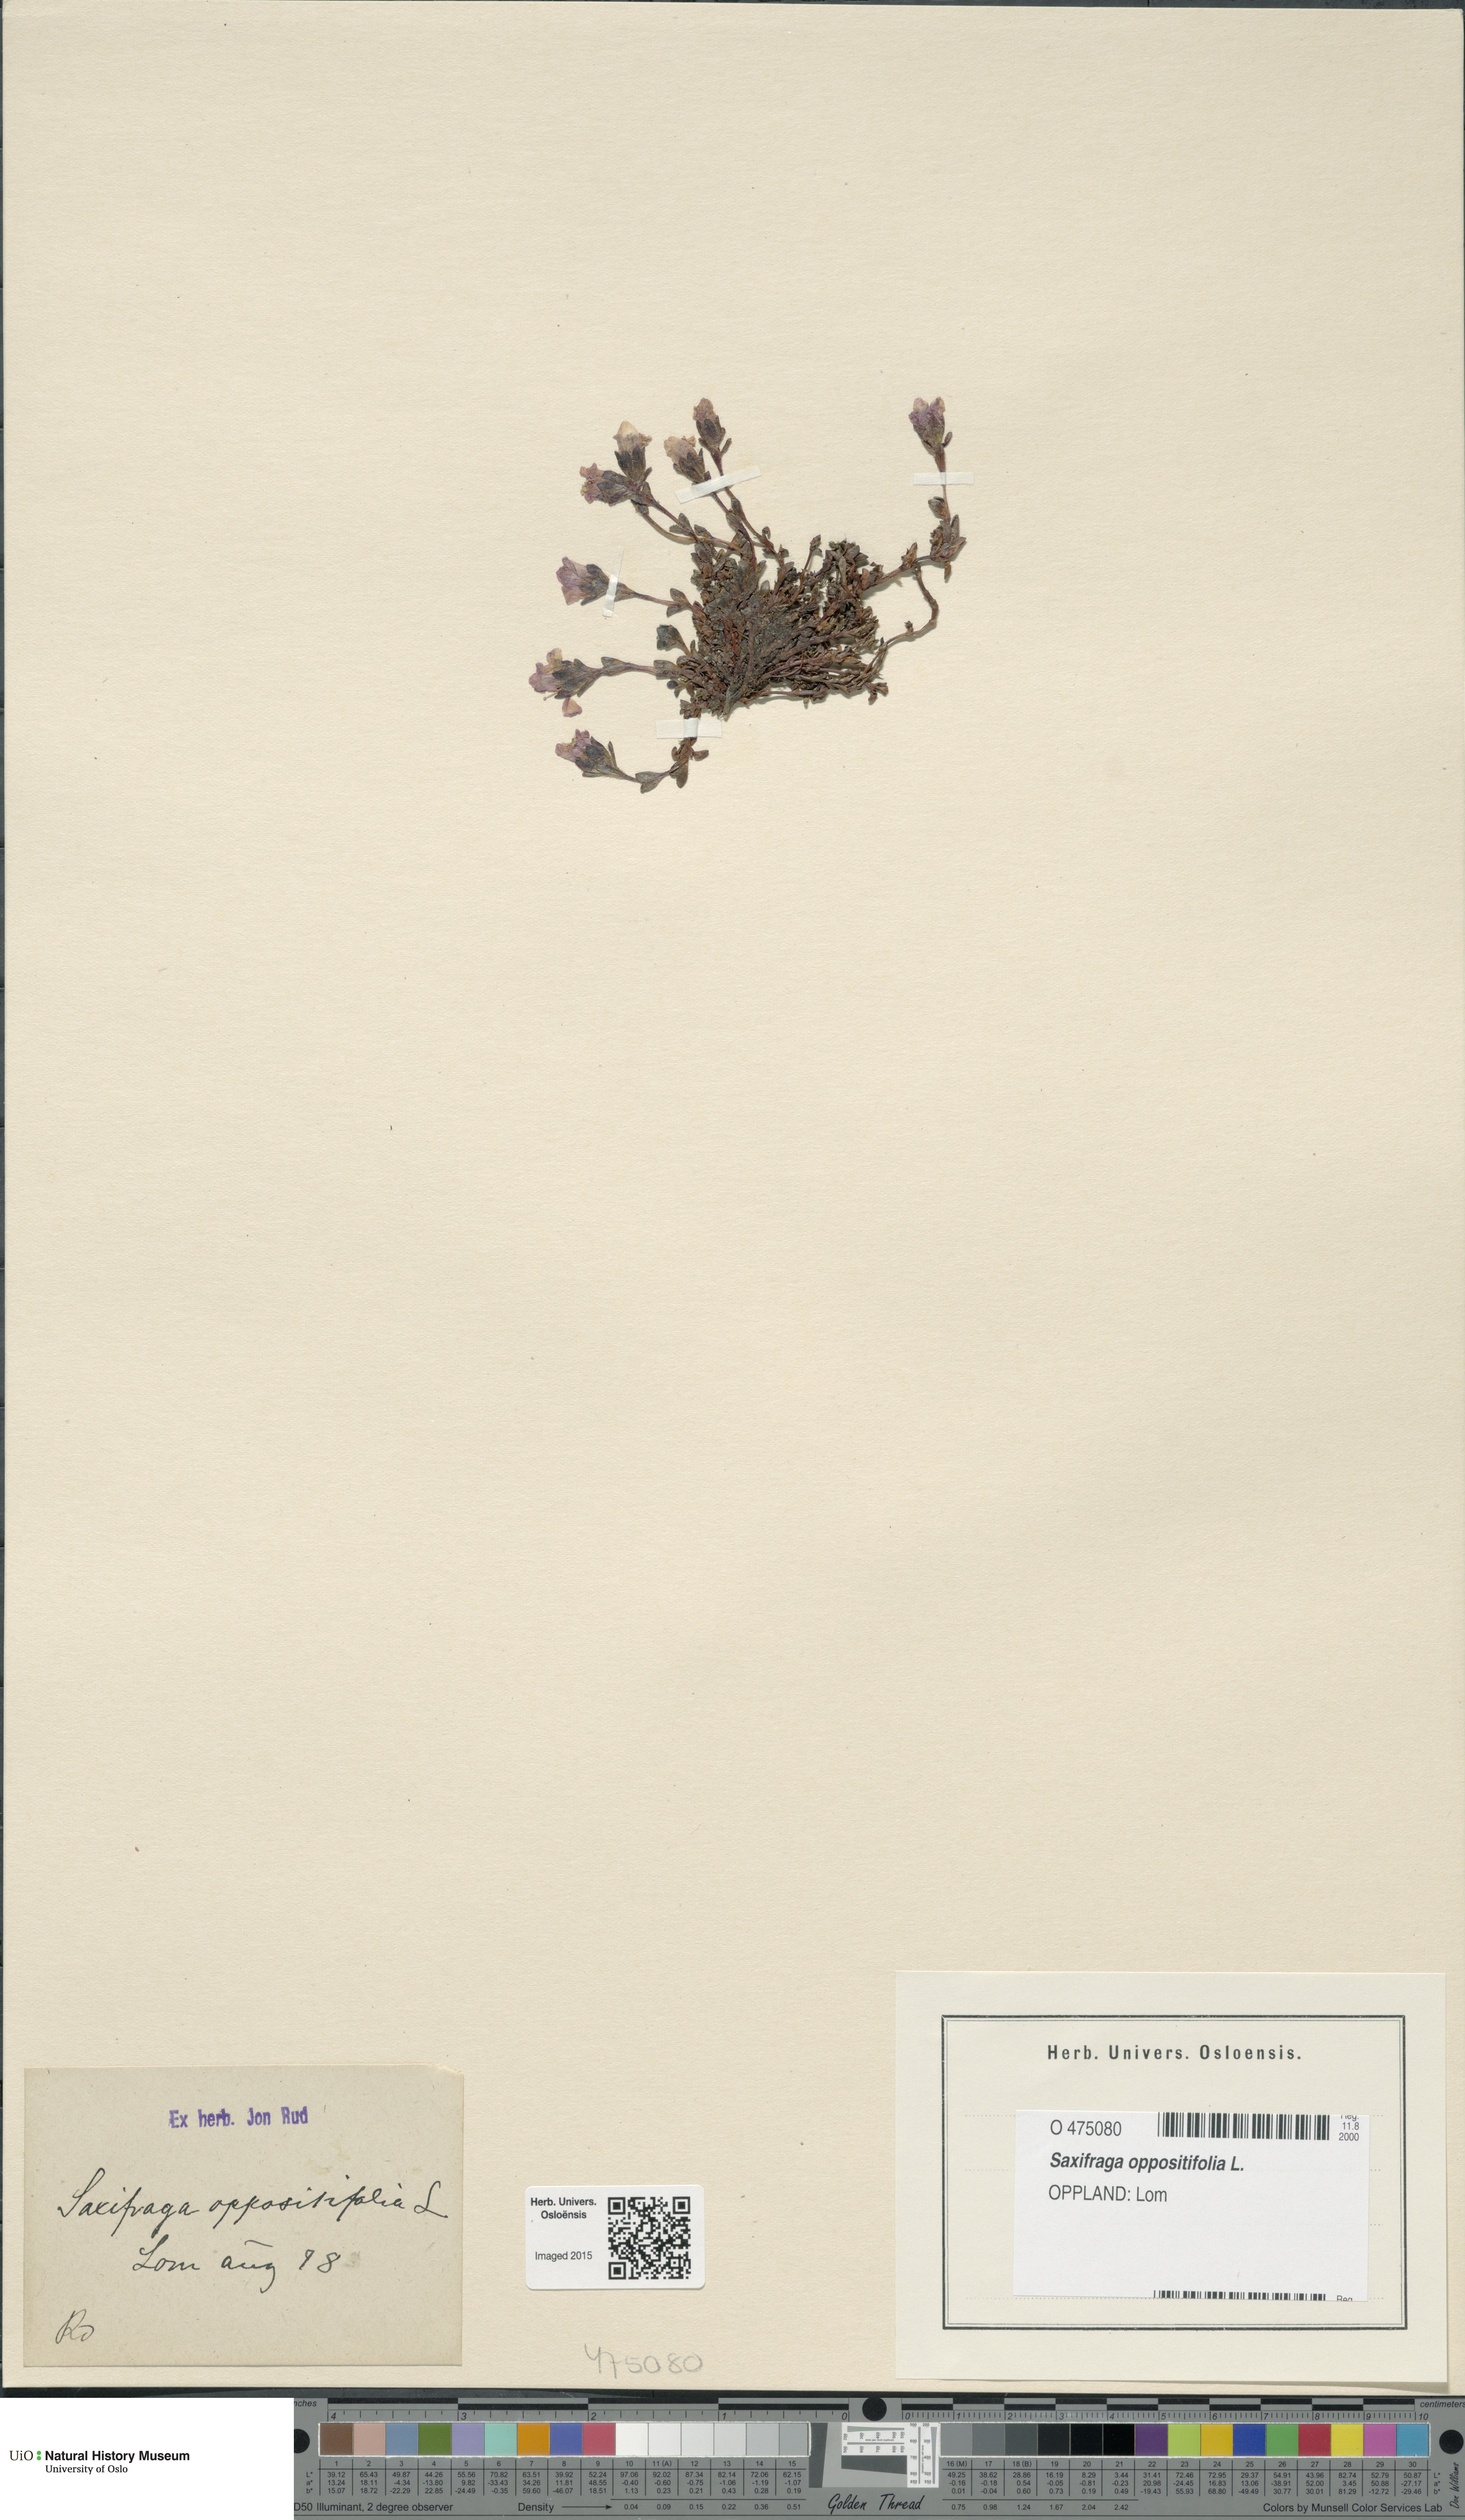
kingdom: Plantae
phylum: Tracheophyta
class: Magnoliopsida
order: Saxifragales
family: Saxifragaceae
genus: Saxifraga
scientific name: Saxifraga oppositifolia
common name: Purple saxifrage
